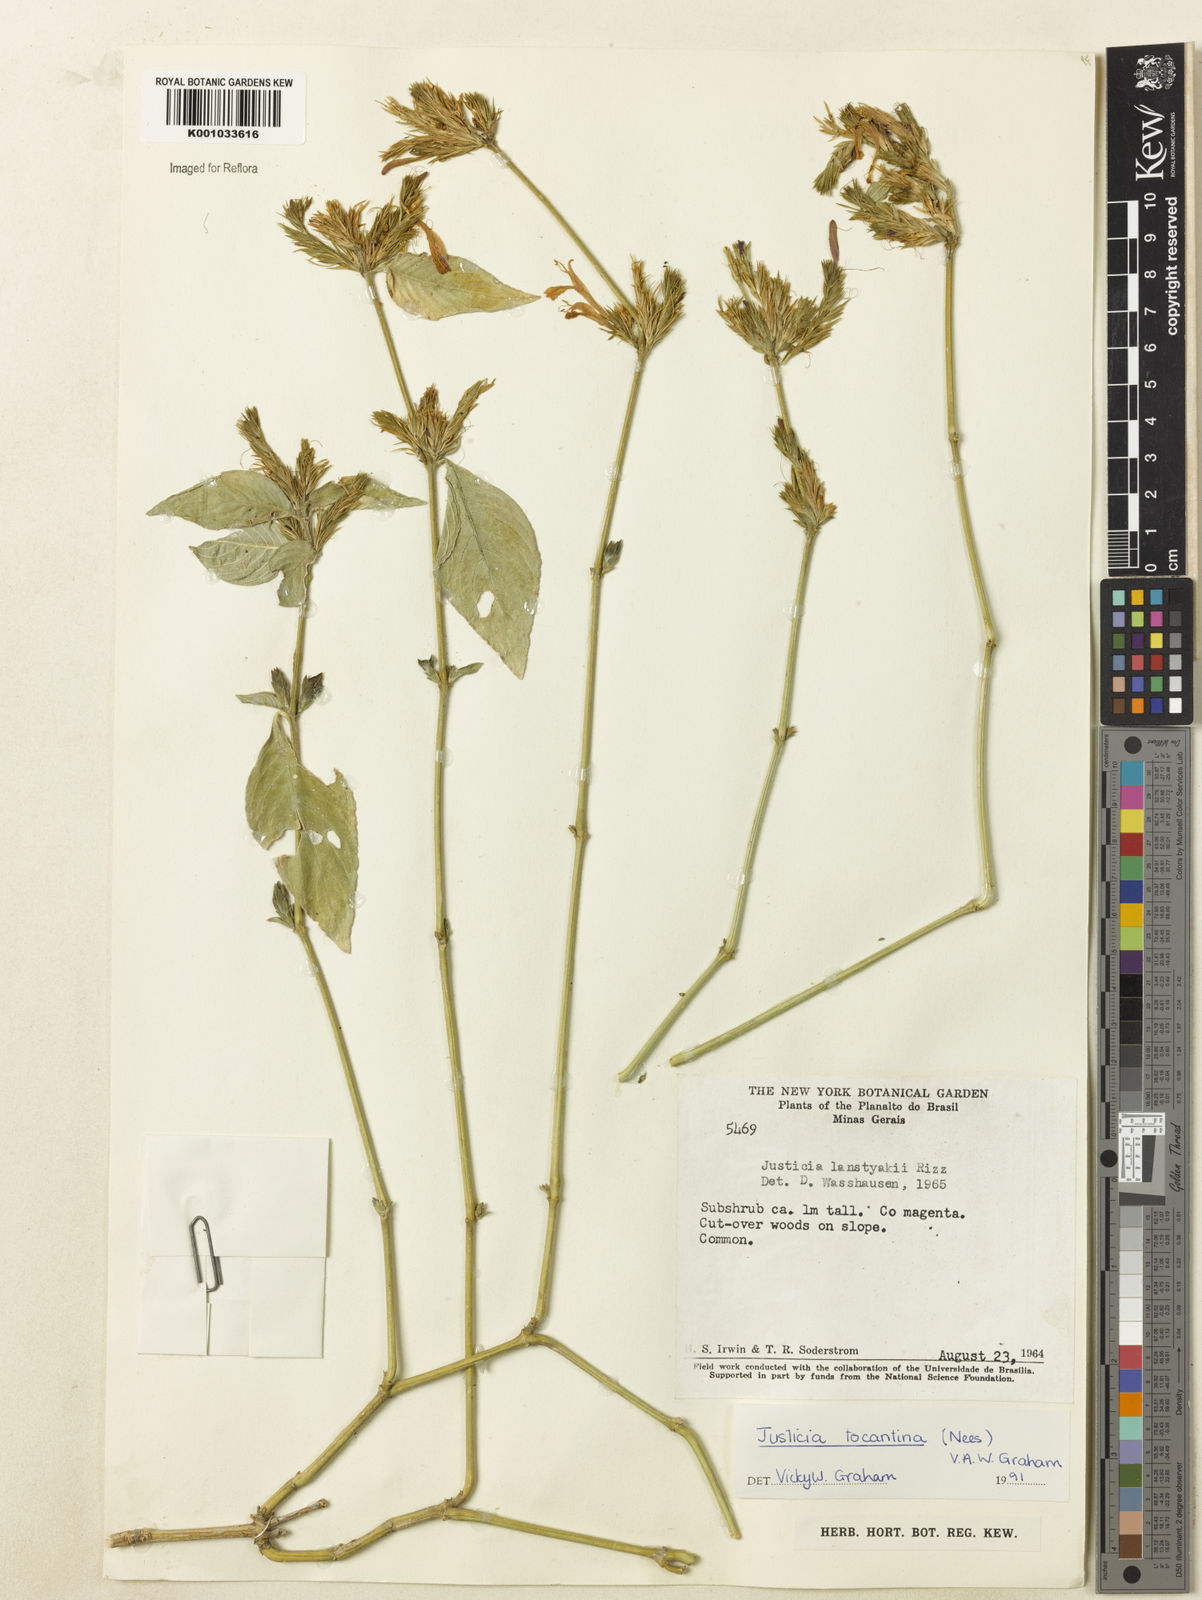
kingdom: Plantae
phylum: Tracheophyta
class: Magnoliopsida
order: Lamiales
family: Acanthaceae
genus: Justicia
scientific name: Justicia tocantina
